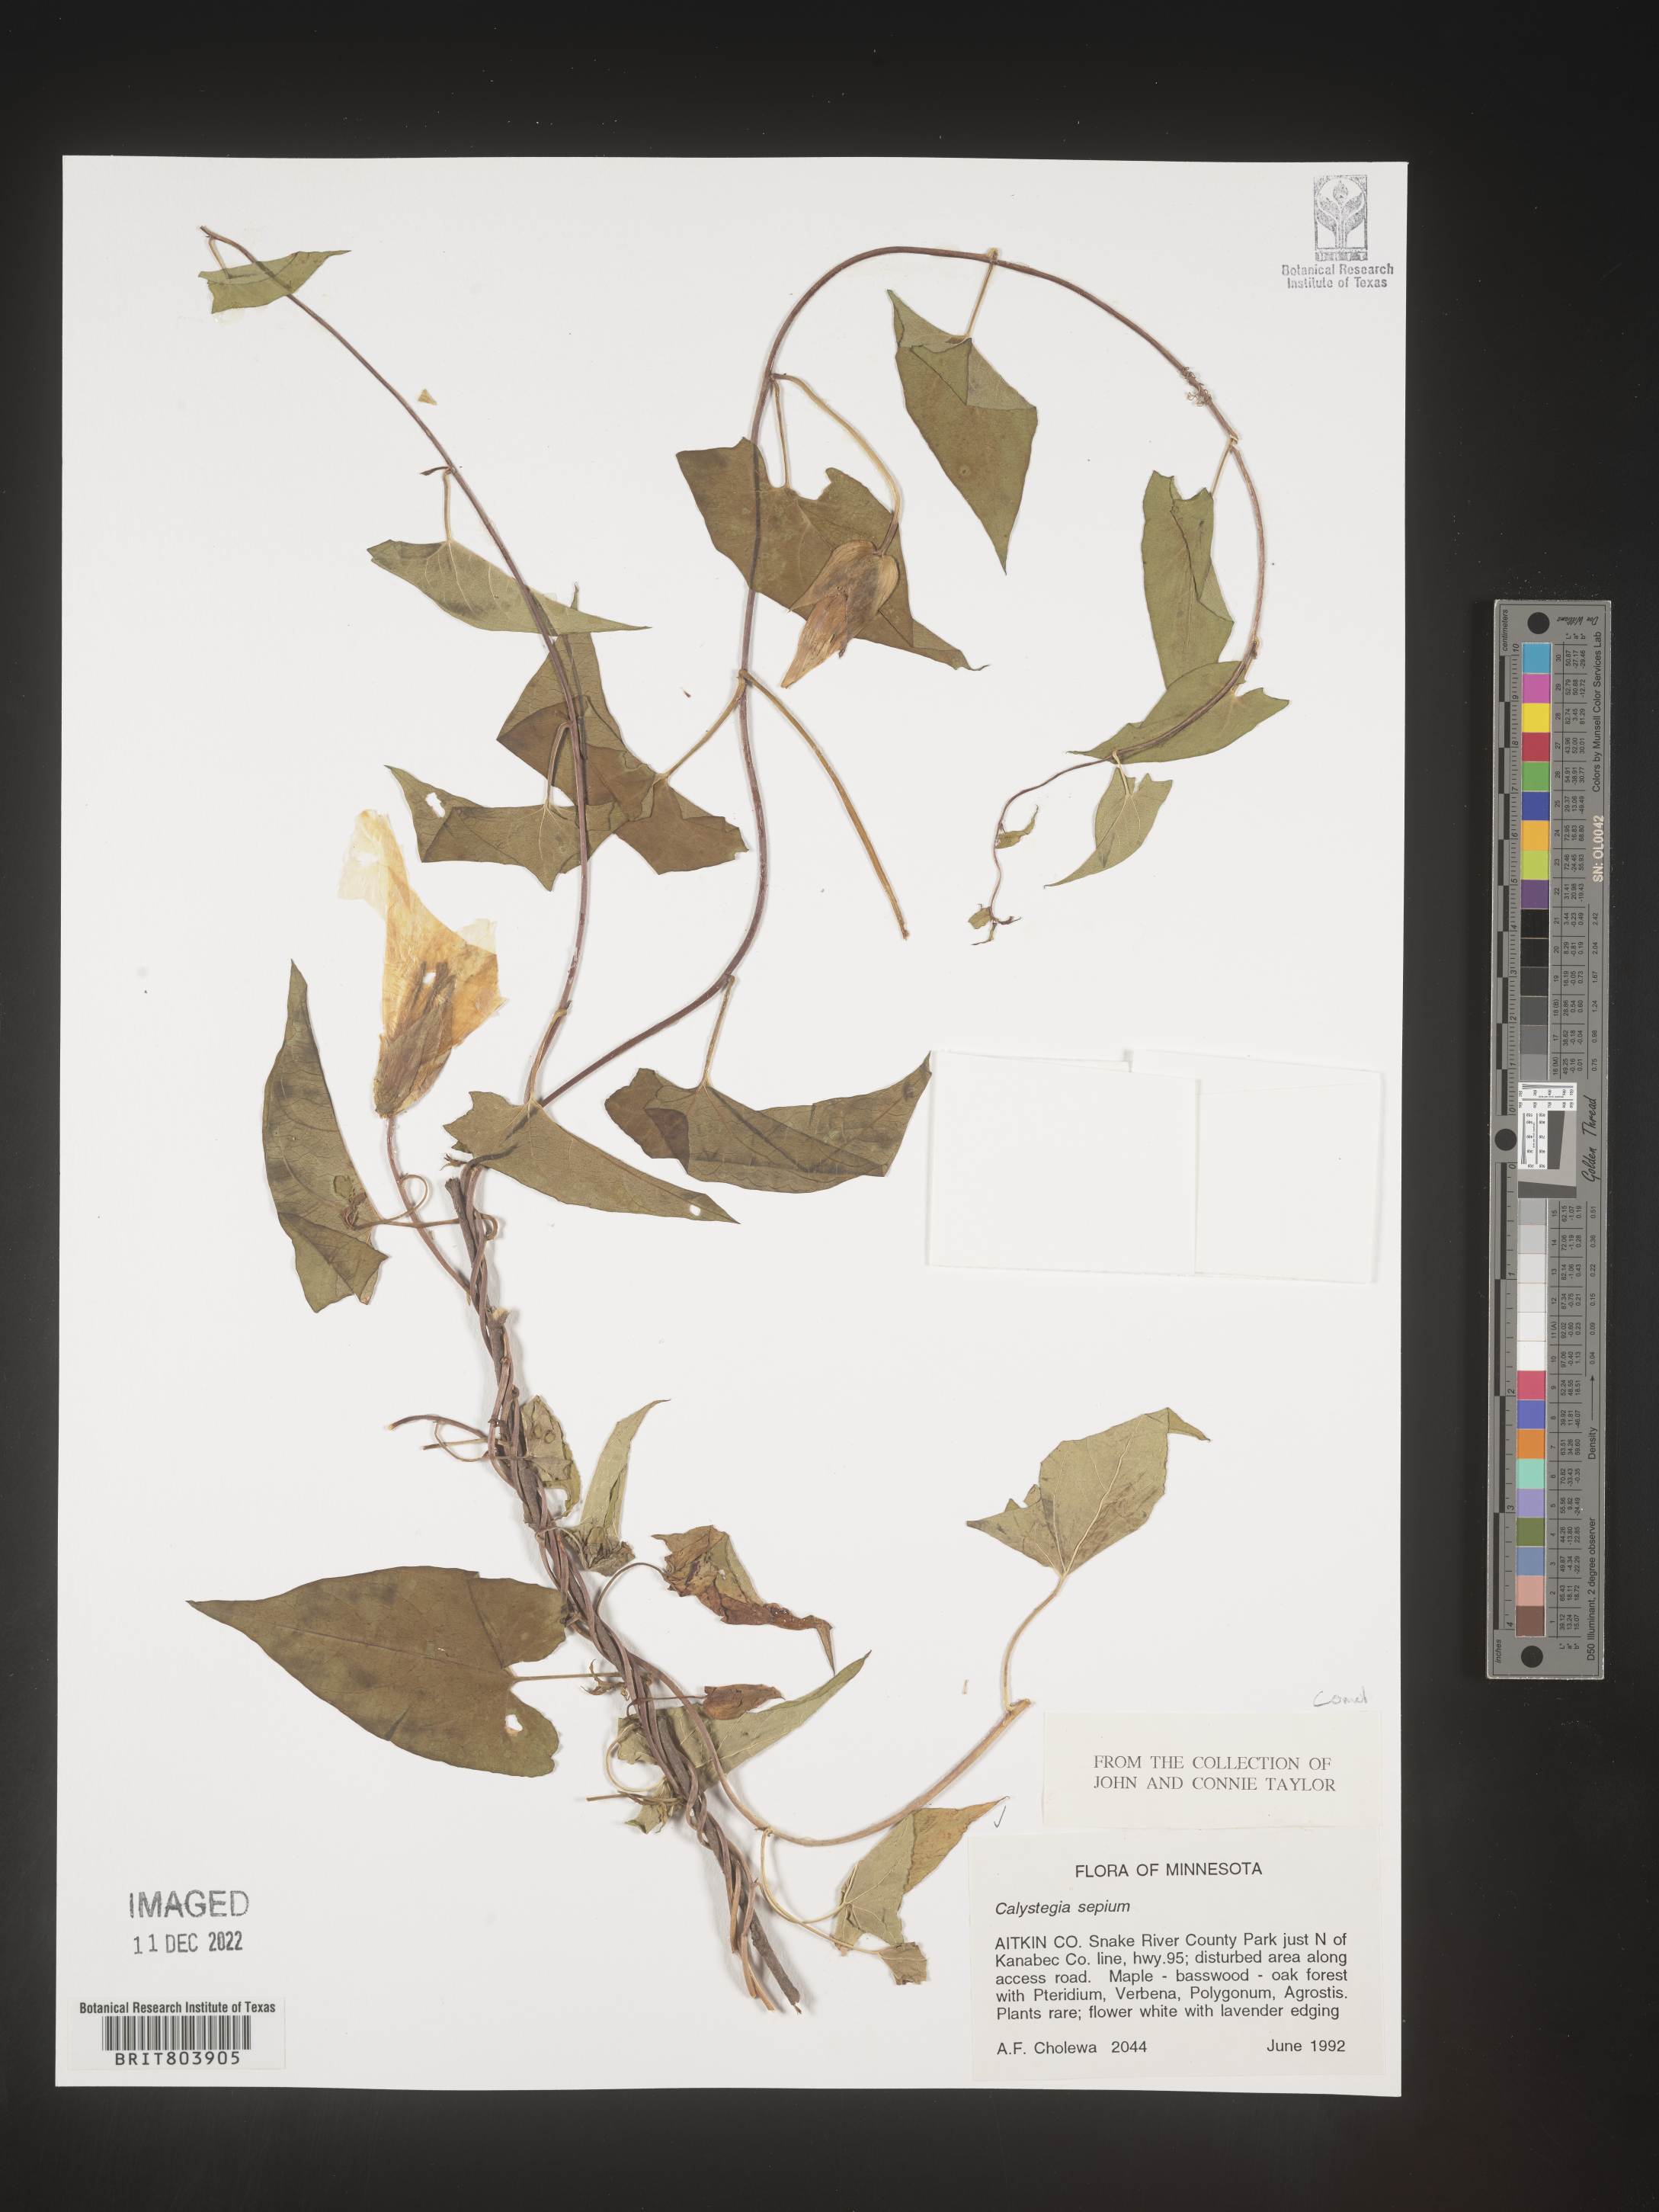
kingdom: Plantae
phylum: Tracheophyta
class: Magnoliopsida
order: Solanales
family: Convolvulaceae
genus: Calystegia
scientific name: Calystegia sepium
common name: Hedge bindweed
